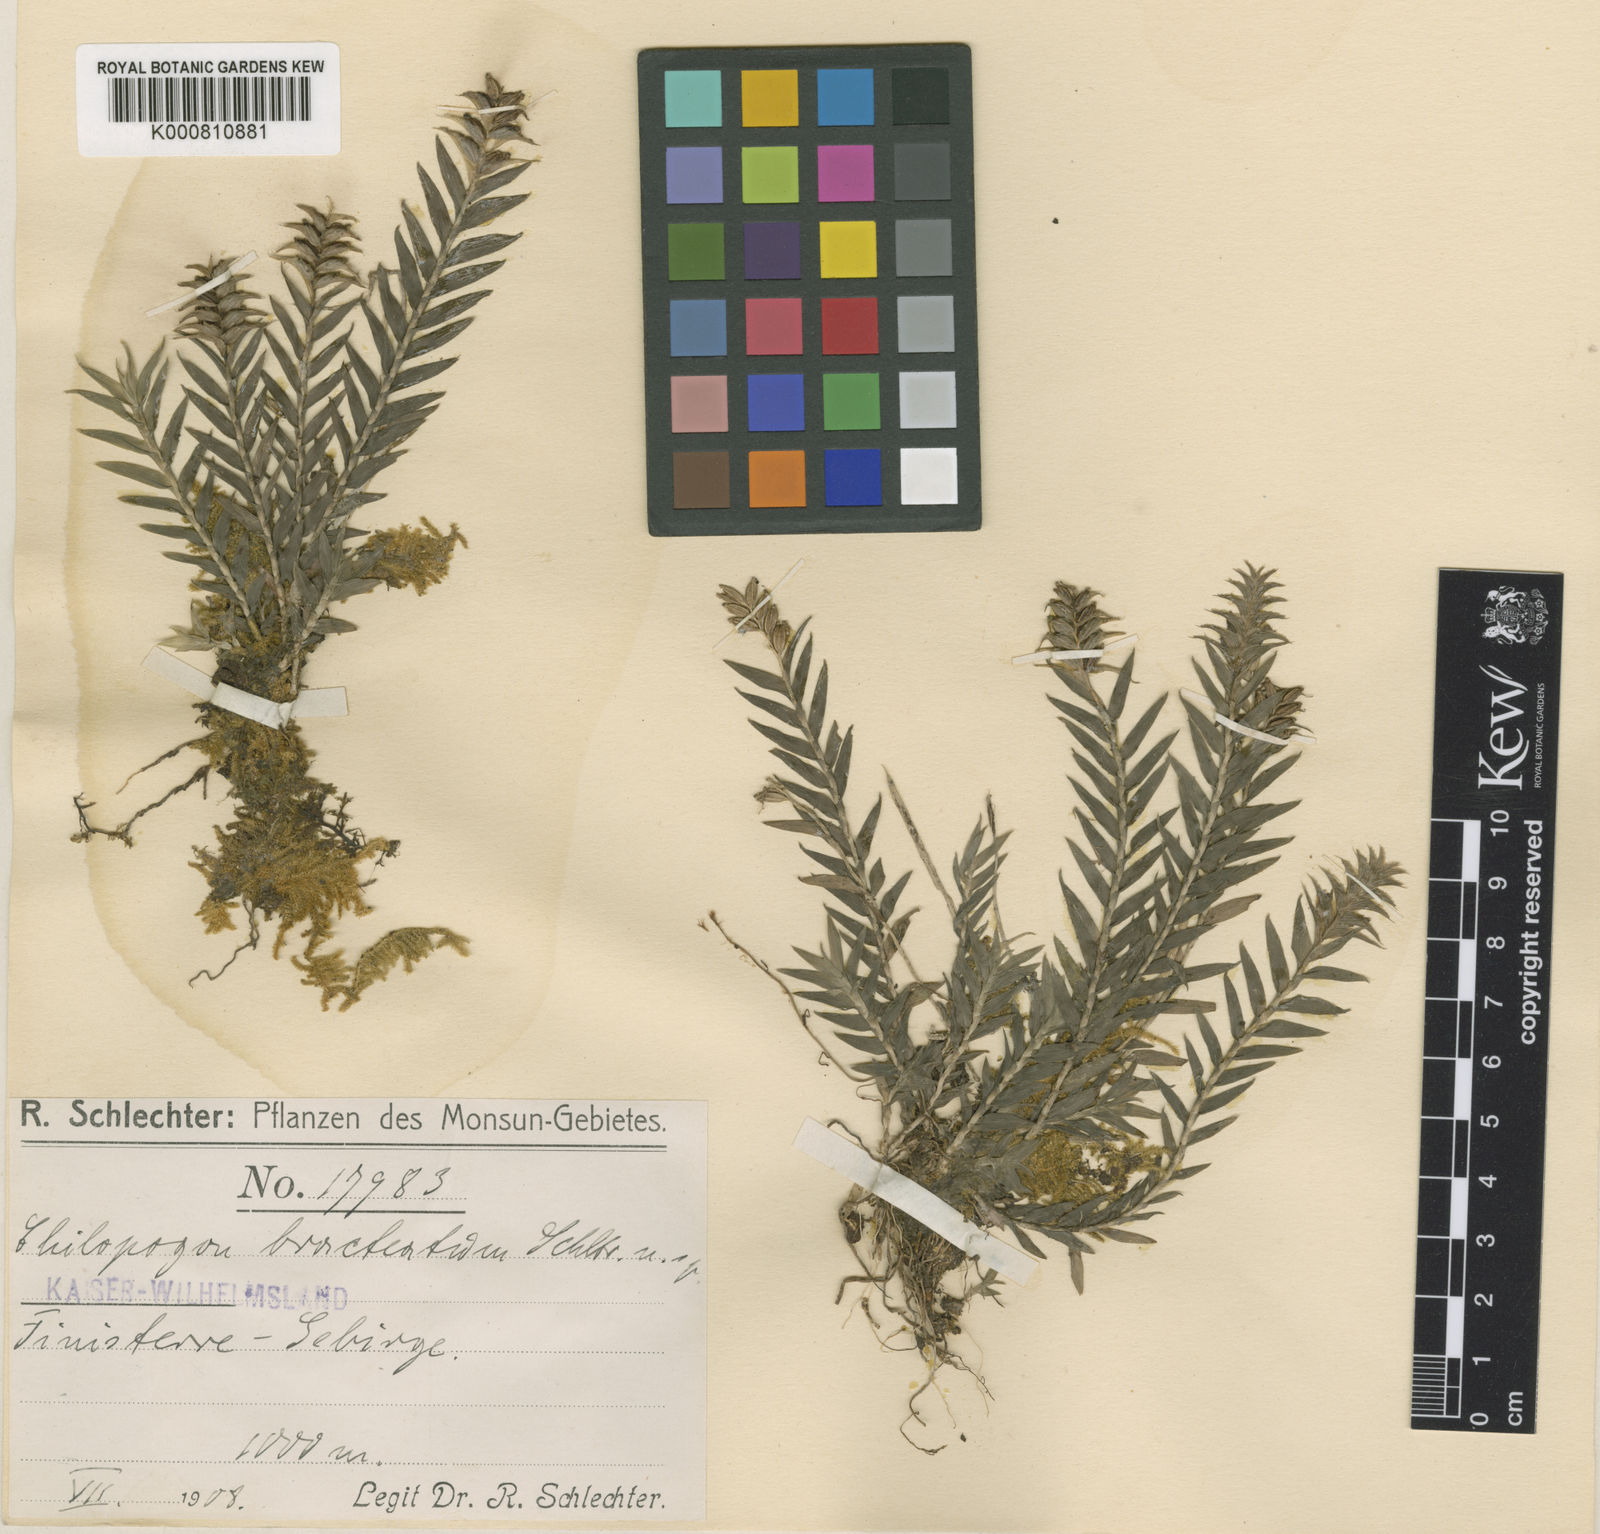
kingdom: Plantae
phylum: Tracheophyta
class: Liliopsida
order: Asparagales
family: Orchidaceae
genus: Appendicula
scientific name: Appendicula bracteata
